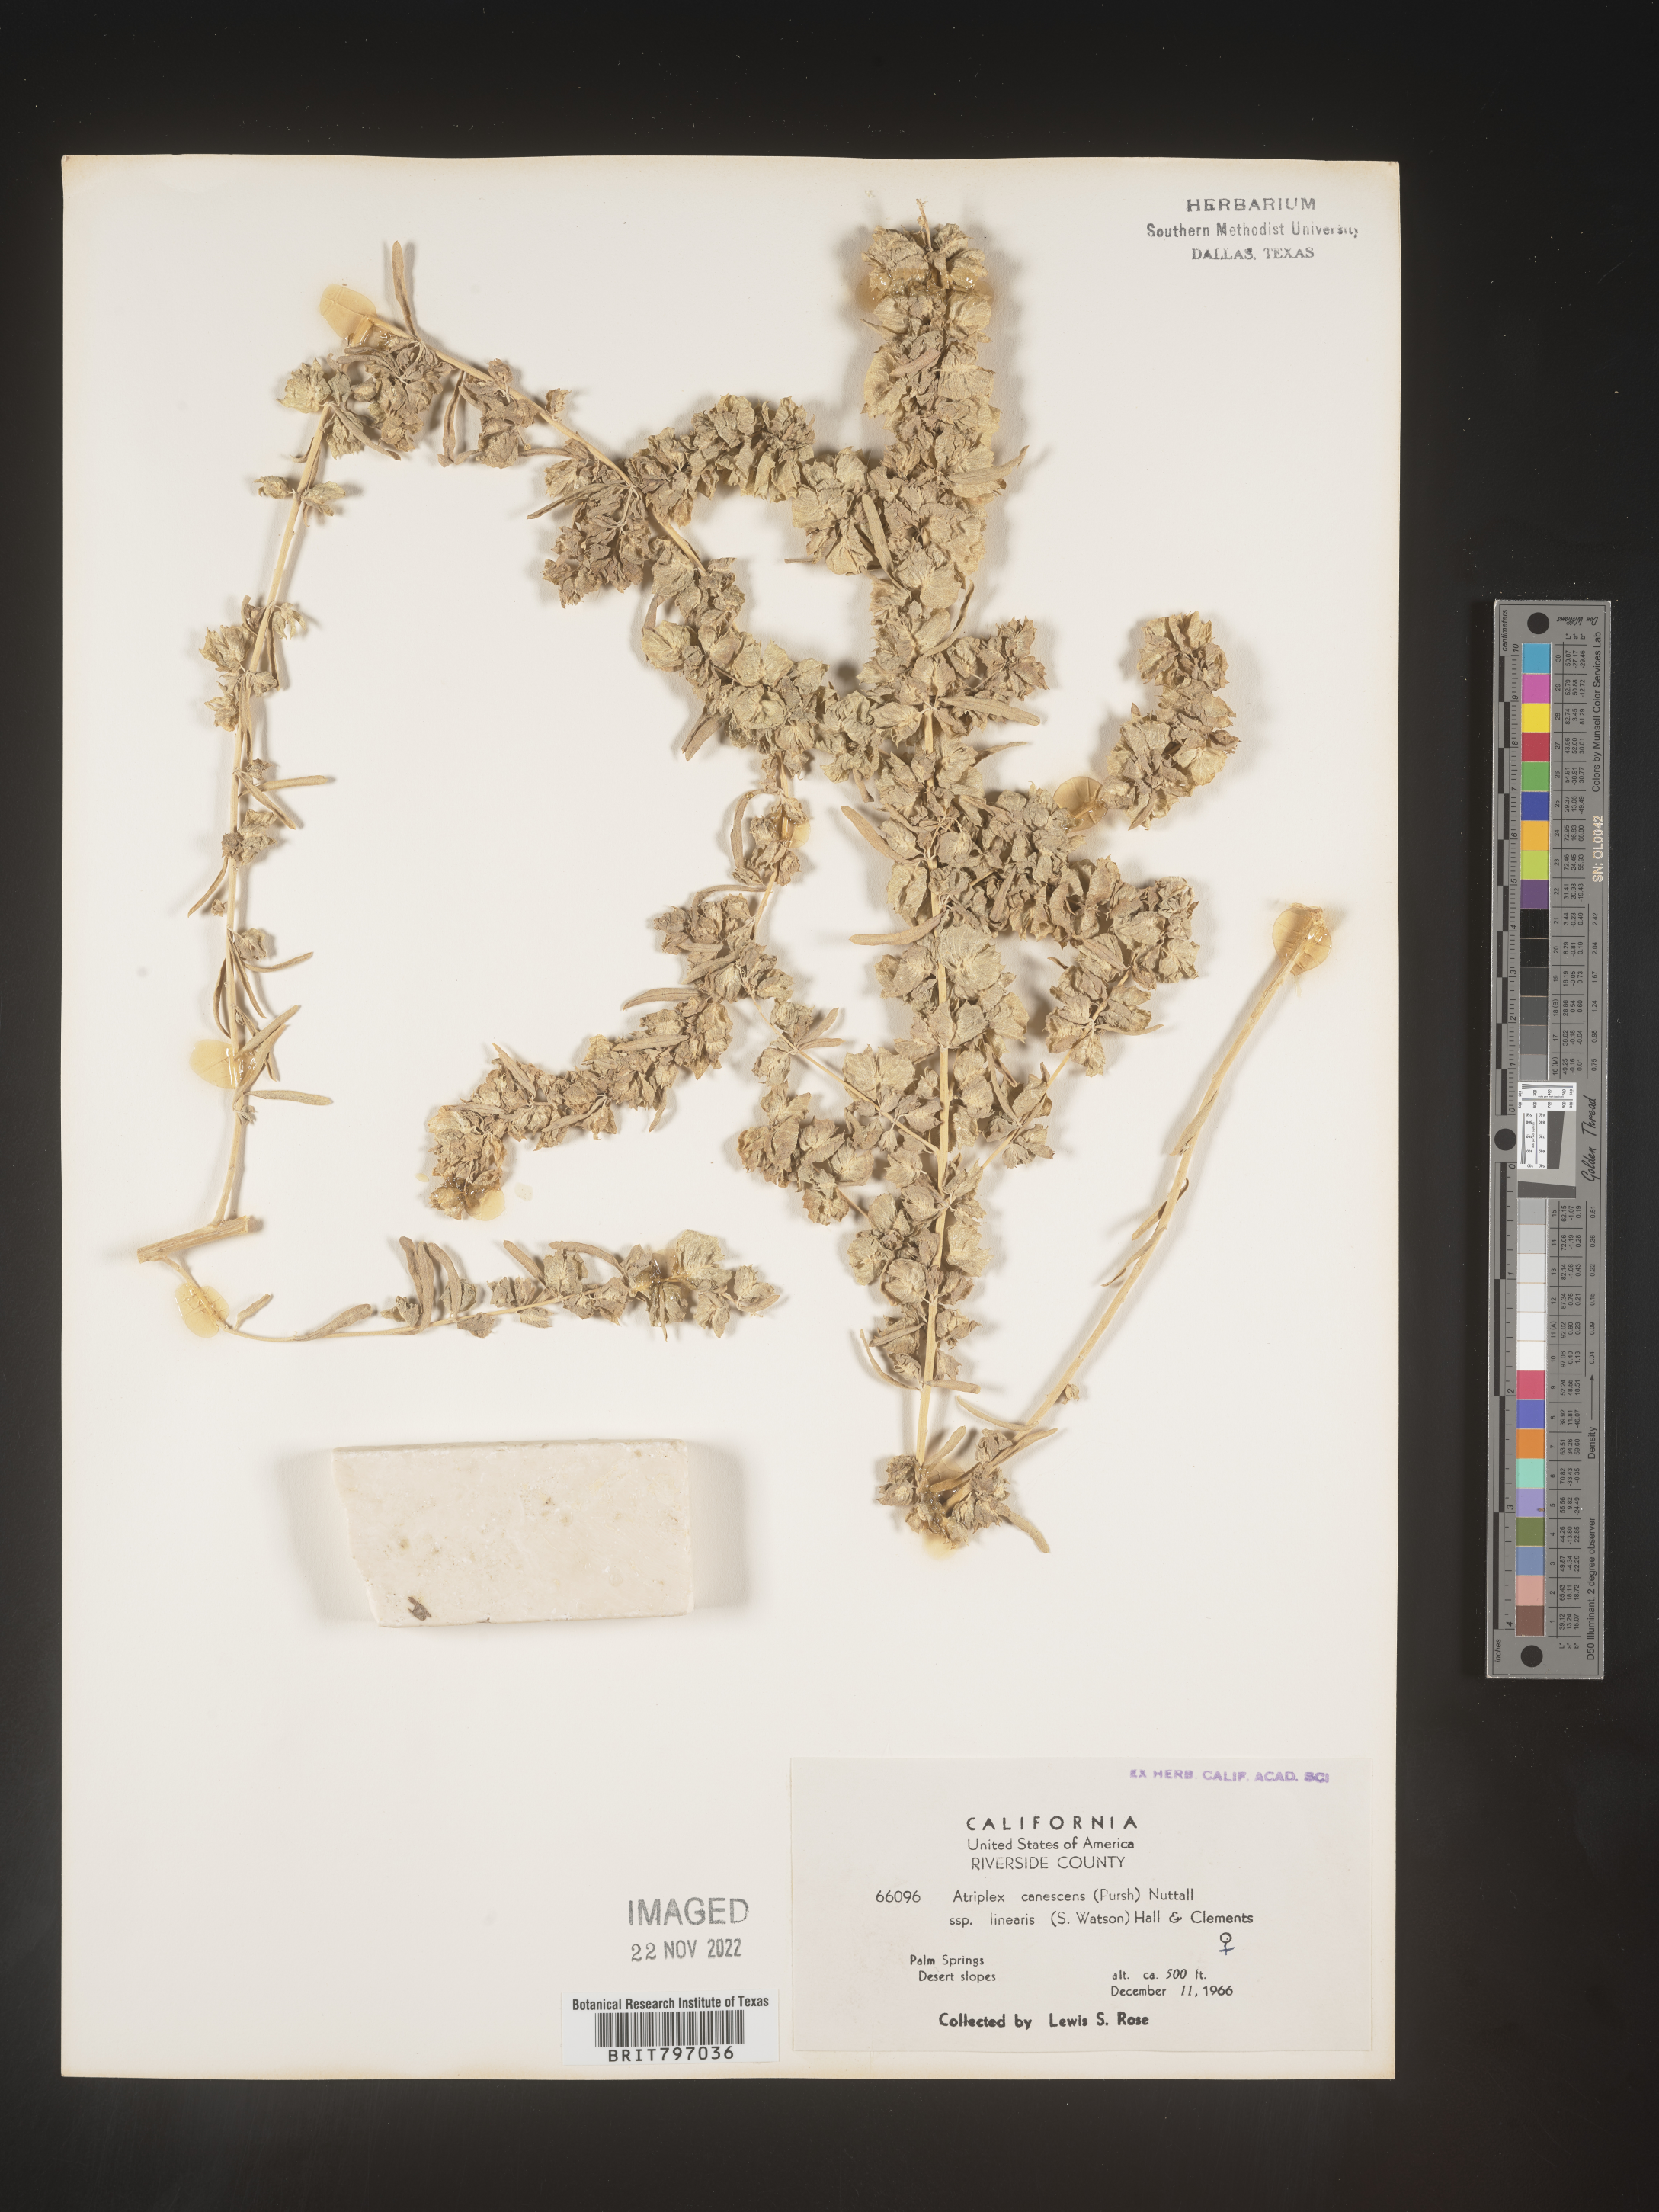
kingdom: Plantae
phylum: Tracheophyta
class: Magnoliopsida
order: Caryophyllales
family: Amaranthaceae
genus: Atriplex
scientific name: Atriplex canescens
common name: Four-wing saltbush
